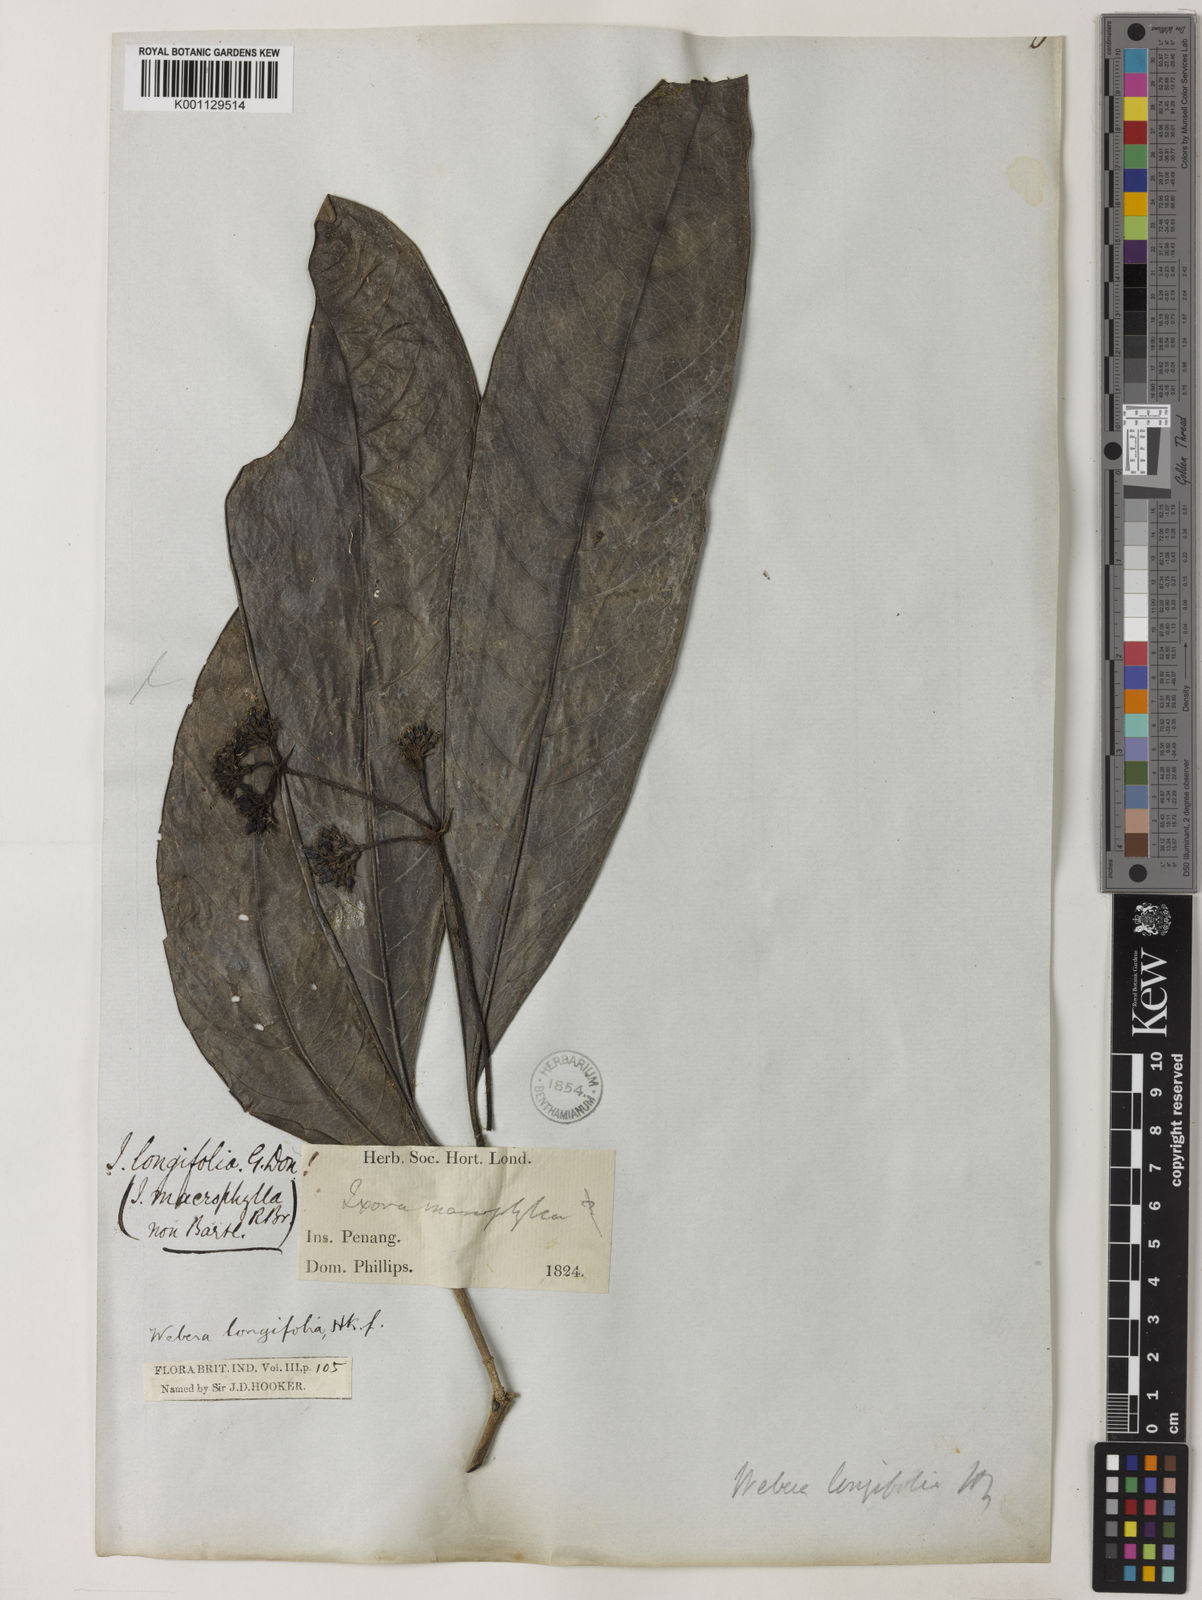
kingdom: Plantae
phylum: Tracheophyta
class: Magnoliopsida
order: Gentianales
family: Rubiaceae
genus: Tarenna
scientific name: Tarenna longifolia
